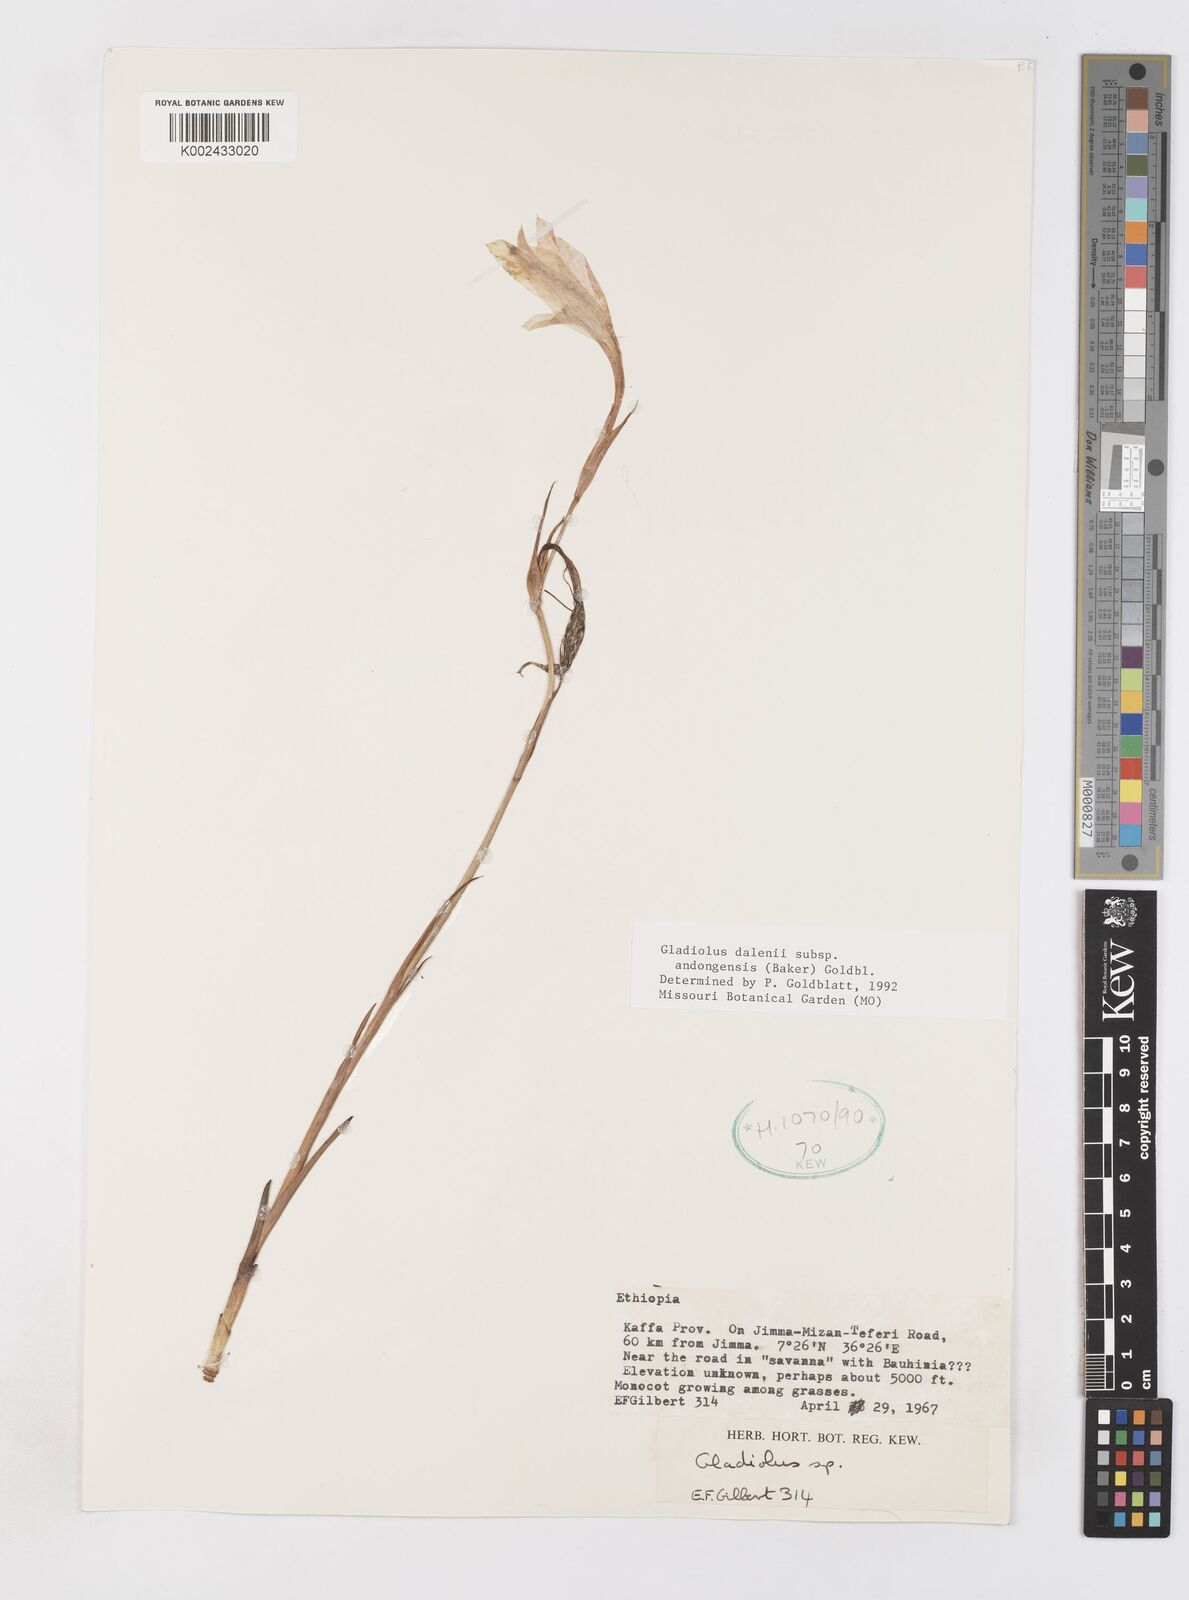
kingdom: Plantae
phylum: Tracheophyta
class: Liliopsida
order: Asparagales
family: Iridaceae
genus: Gladiolus
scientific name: Gladiolus dalenii
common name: Cornflag
